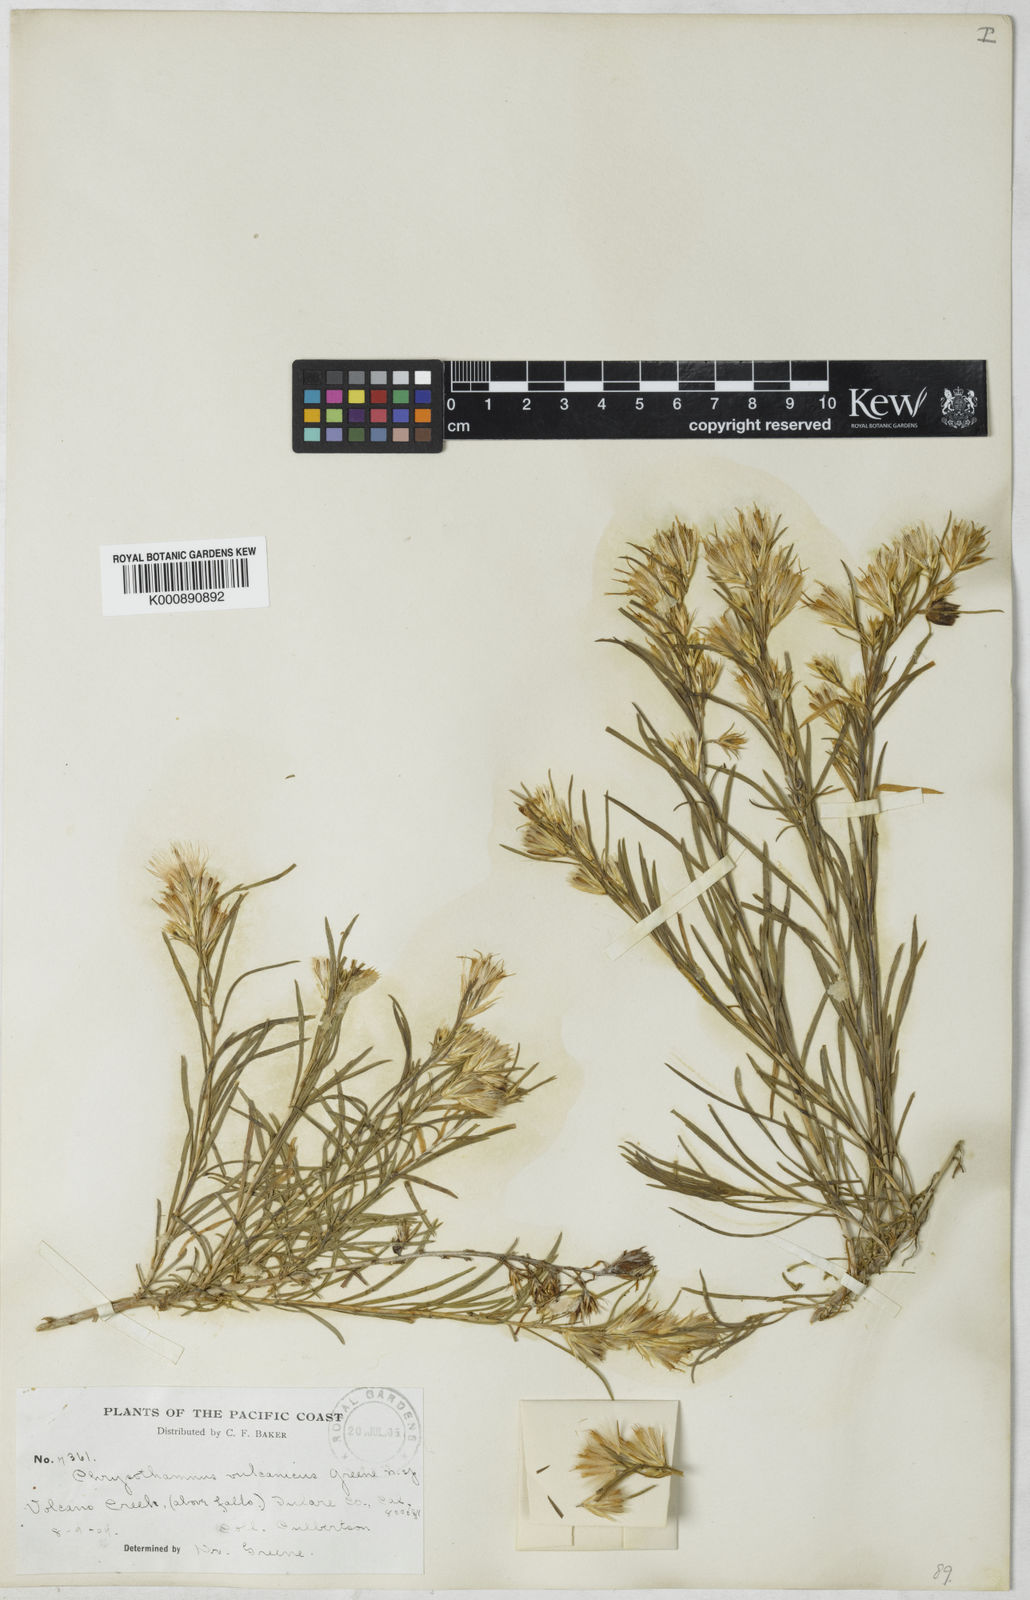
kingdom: Plantae
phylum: Tracheophyta
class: Magnoliopsida
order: Asterales
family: Asteraceae
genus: Ericameria
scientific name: Ericameria parryi
